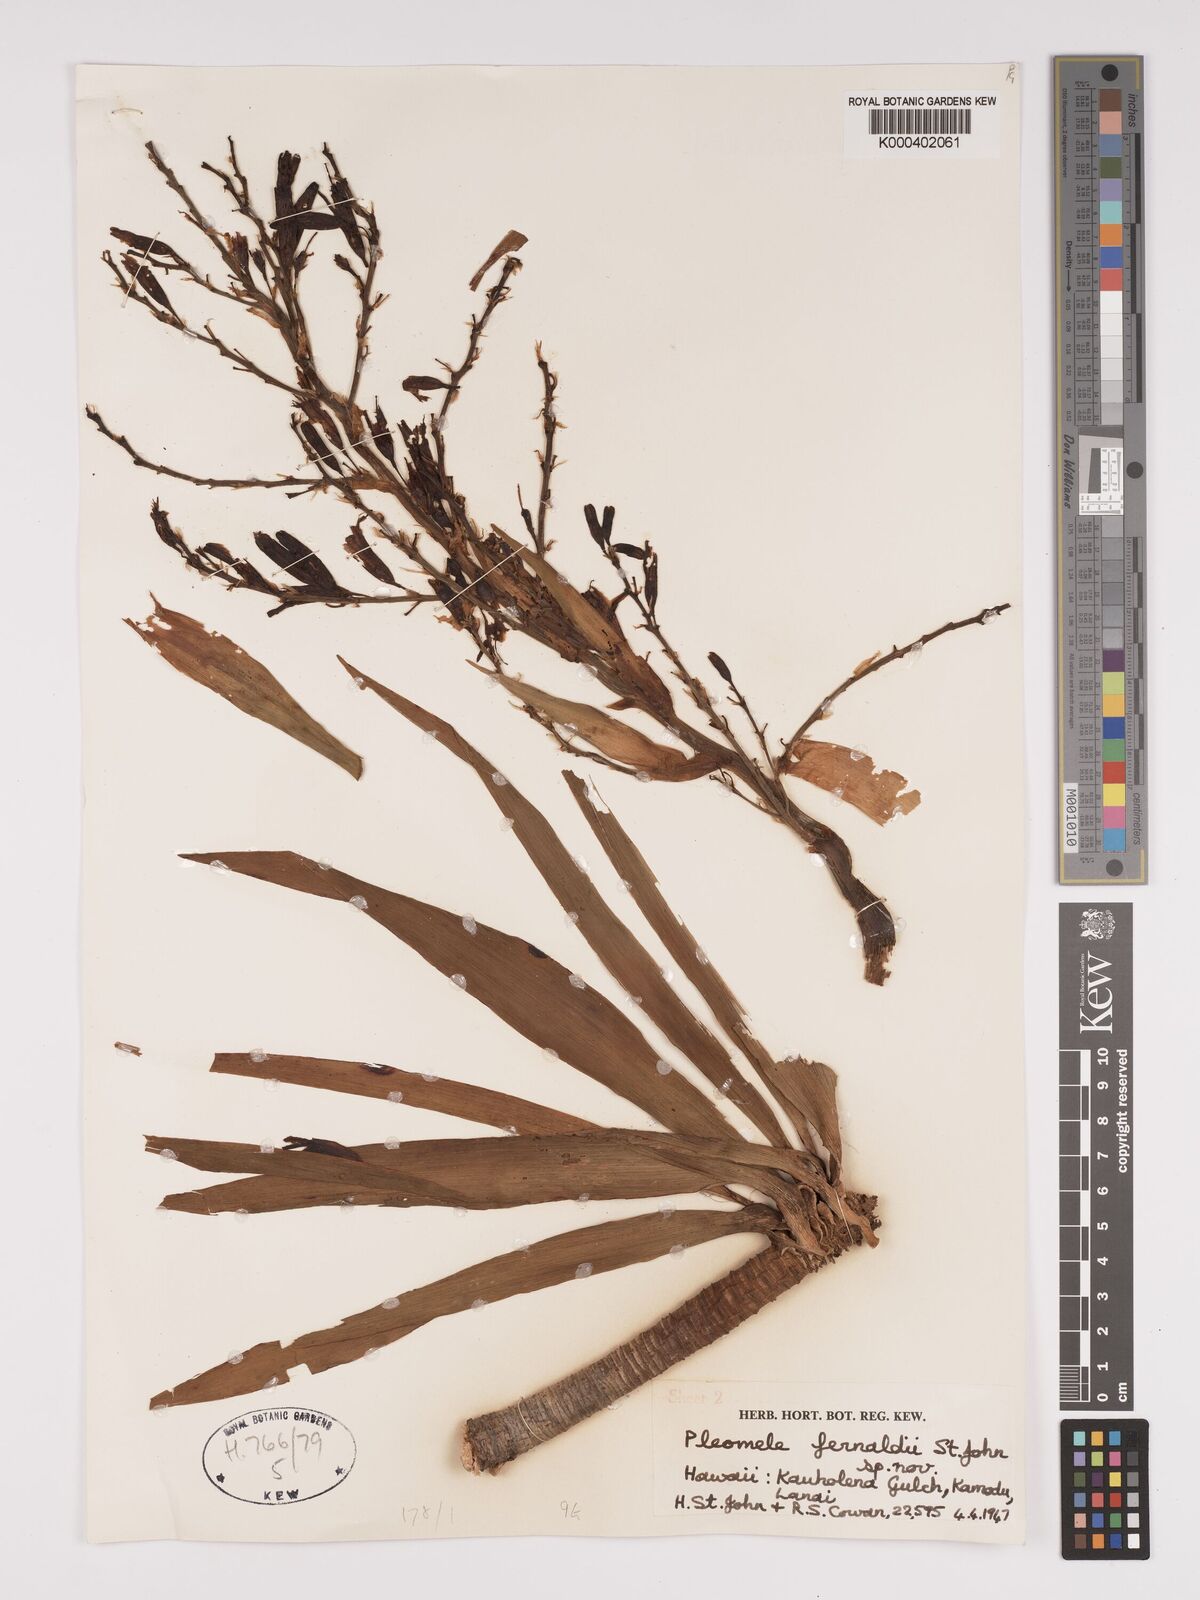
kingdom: Plantae
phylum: Tracheophyta
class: Liliopsida
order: Asparagales
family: Asparagaceae
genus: Dracaena
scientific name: Dracaena fernaldii
